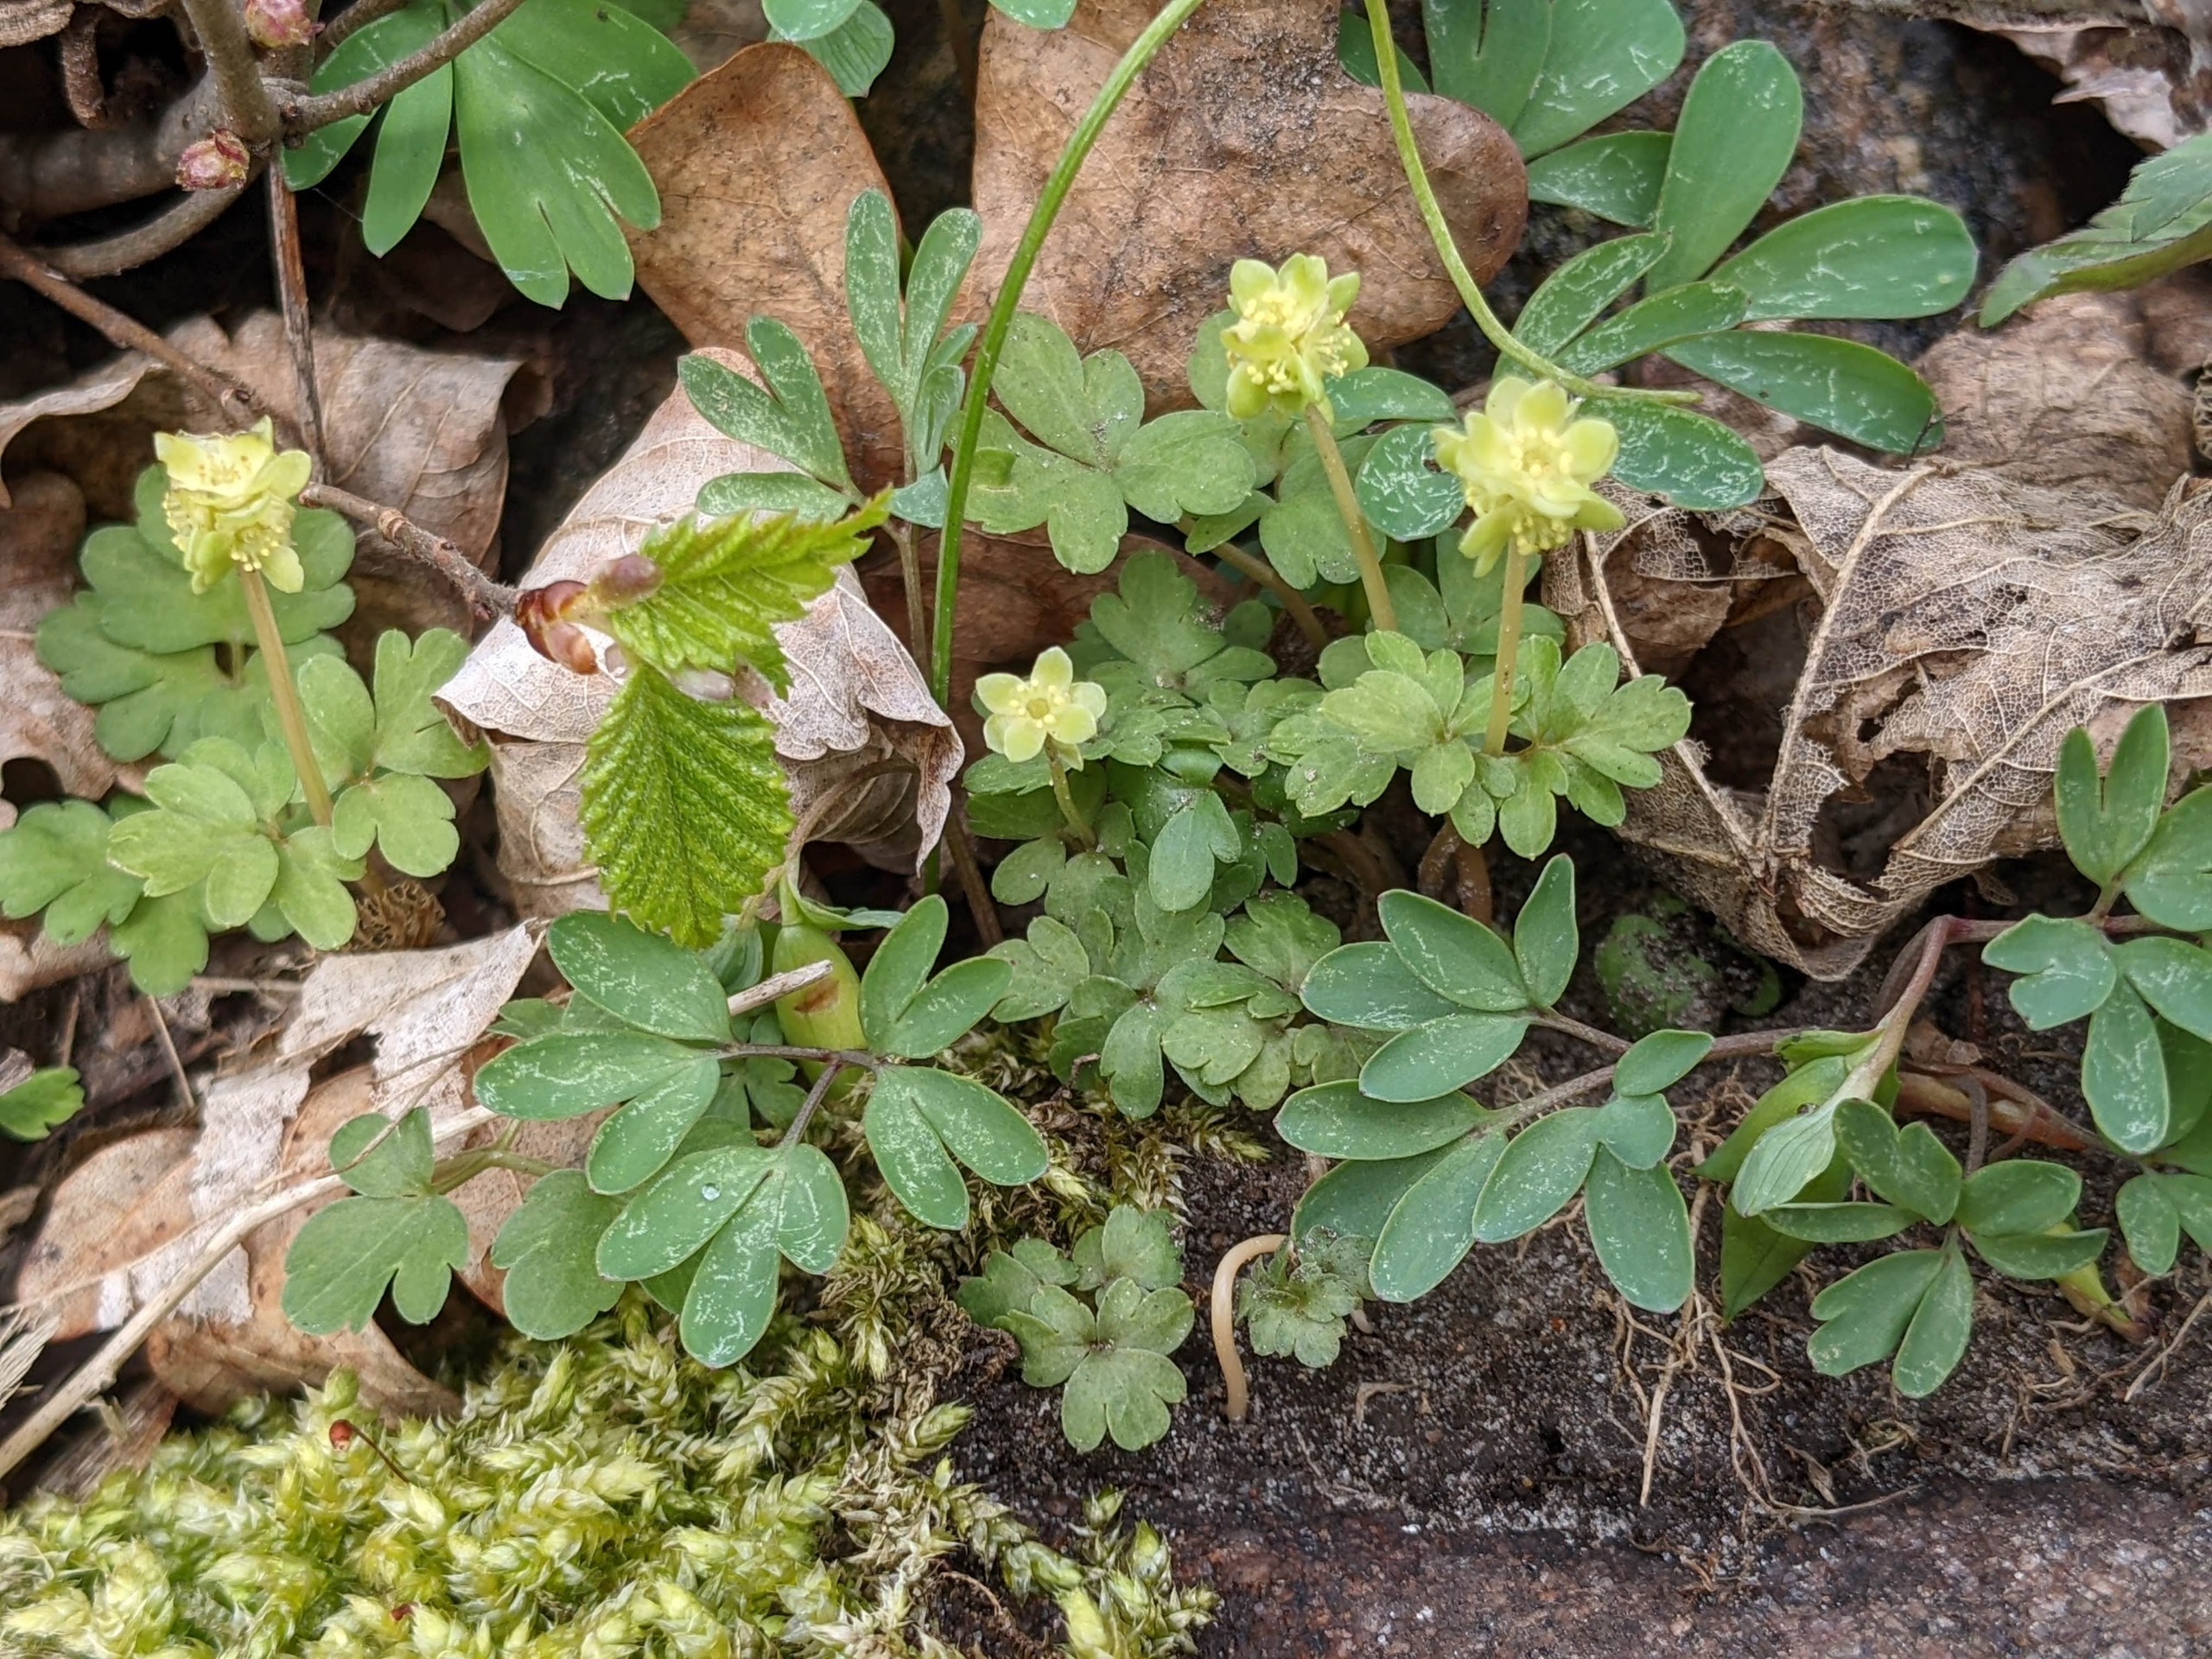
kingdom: Plantae
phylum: Tracheophyta
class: Magnoliopsida
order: Dipsacales
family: Viburnaceae
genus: Adoxa
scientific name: Adoxa moschatellina
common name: Desmerurt
